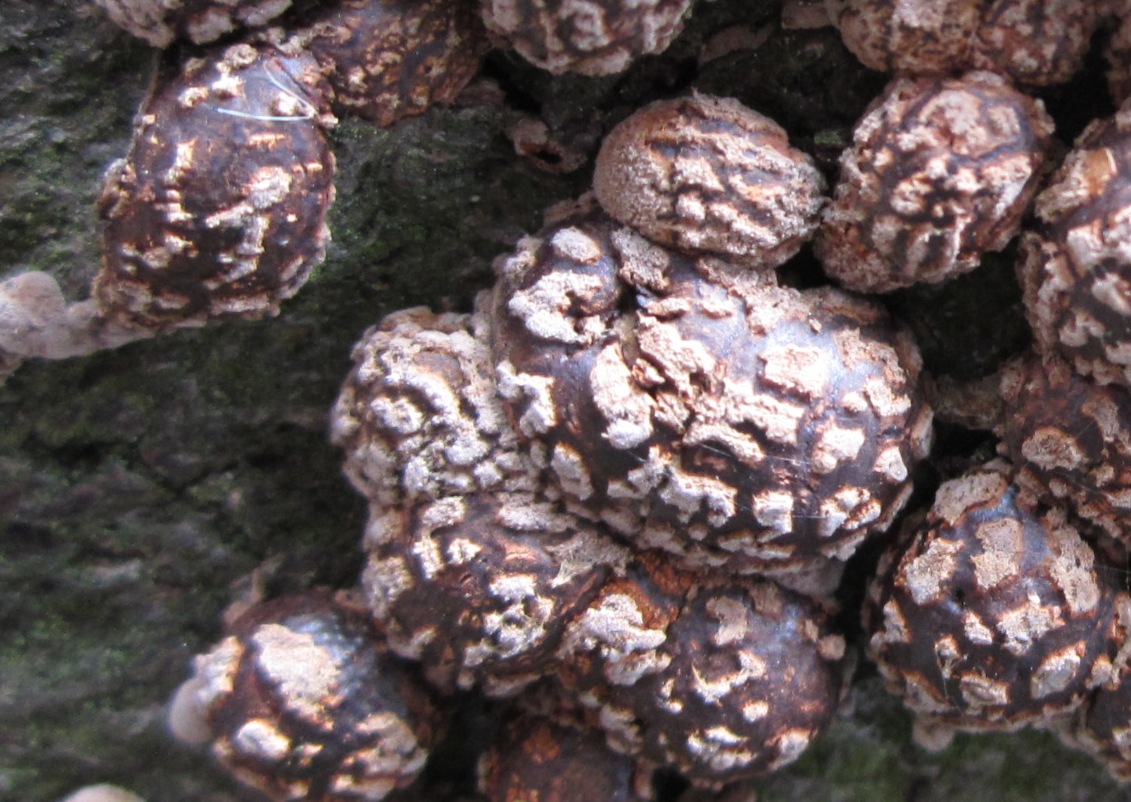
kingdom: Fungi
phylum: Ascomycota
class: Sordariomycetes
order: Xylariales
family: Hypoxylaceae
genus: Hypoxylon
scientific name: Hypoxylon fragiforme
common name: kuljordbær
